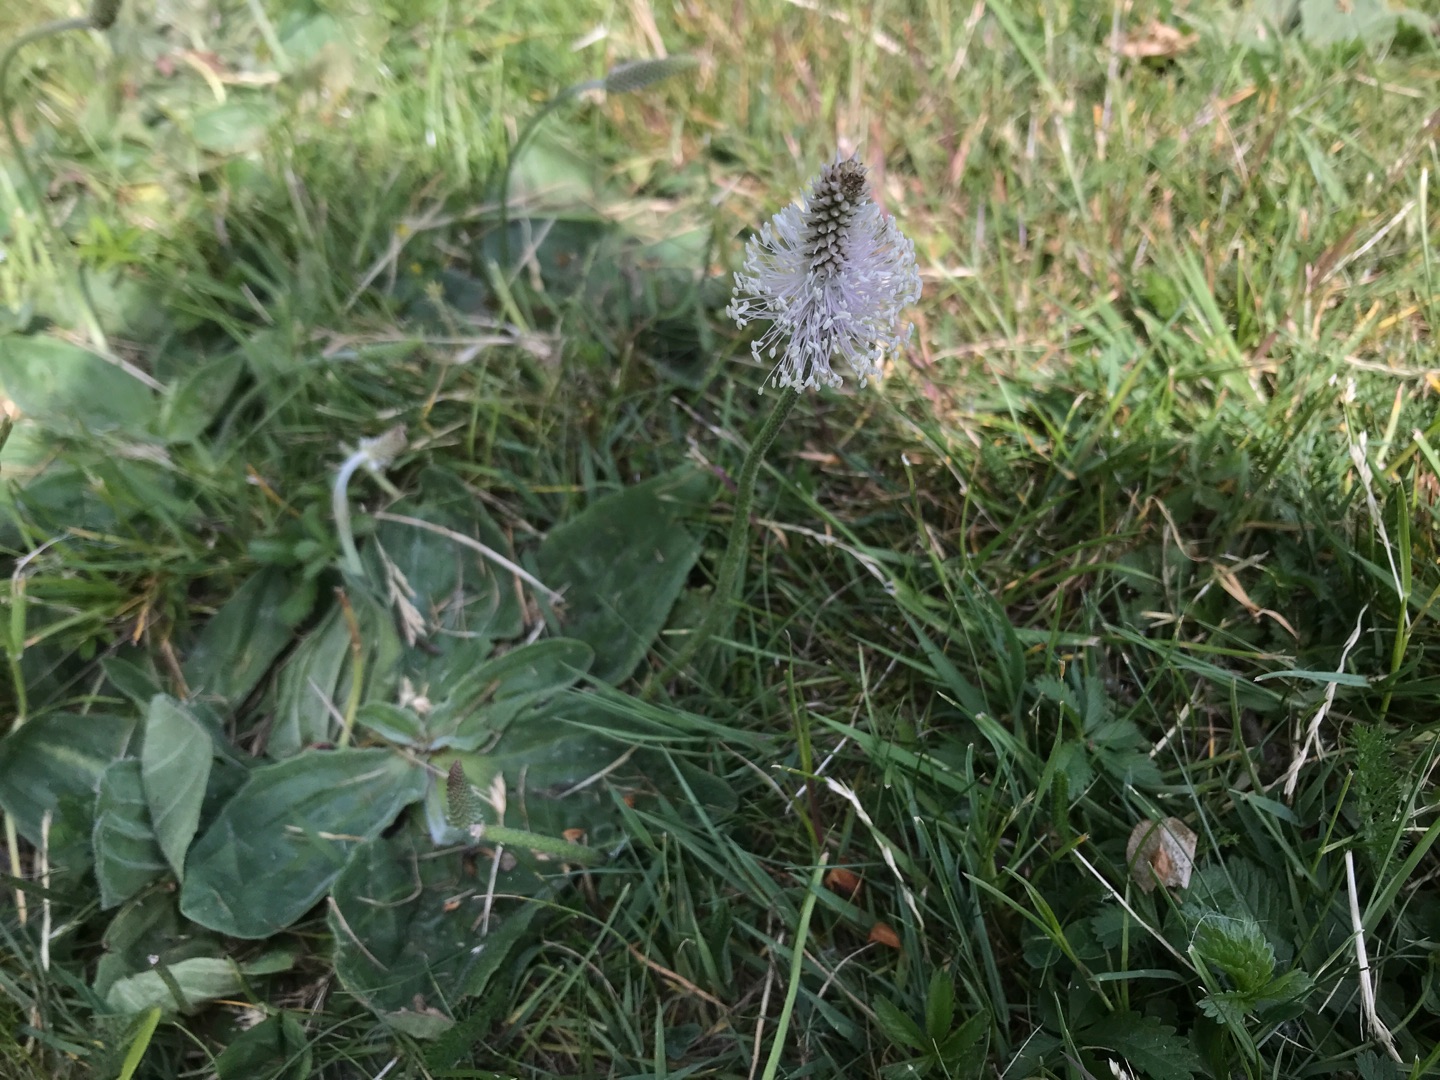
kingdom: Plantae
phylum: Tracheophyta
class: Magnoliopsida
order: Lamiales
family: Plantaginaceae
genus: Plantago
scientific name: Plantago media
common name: Dunet vejbred
